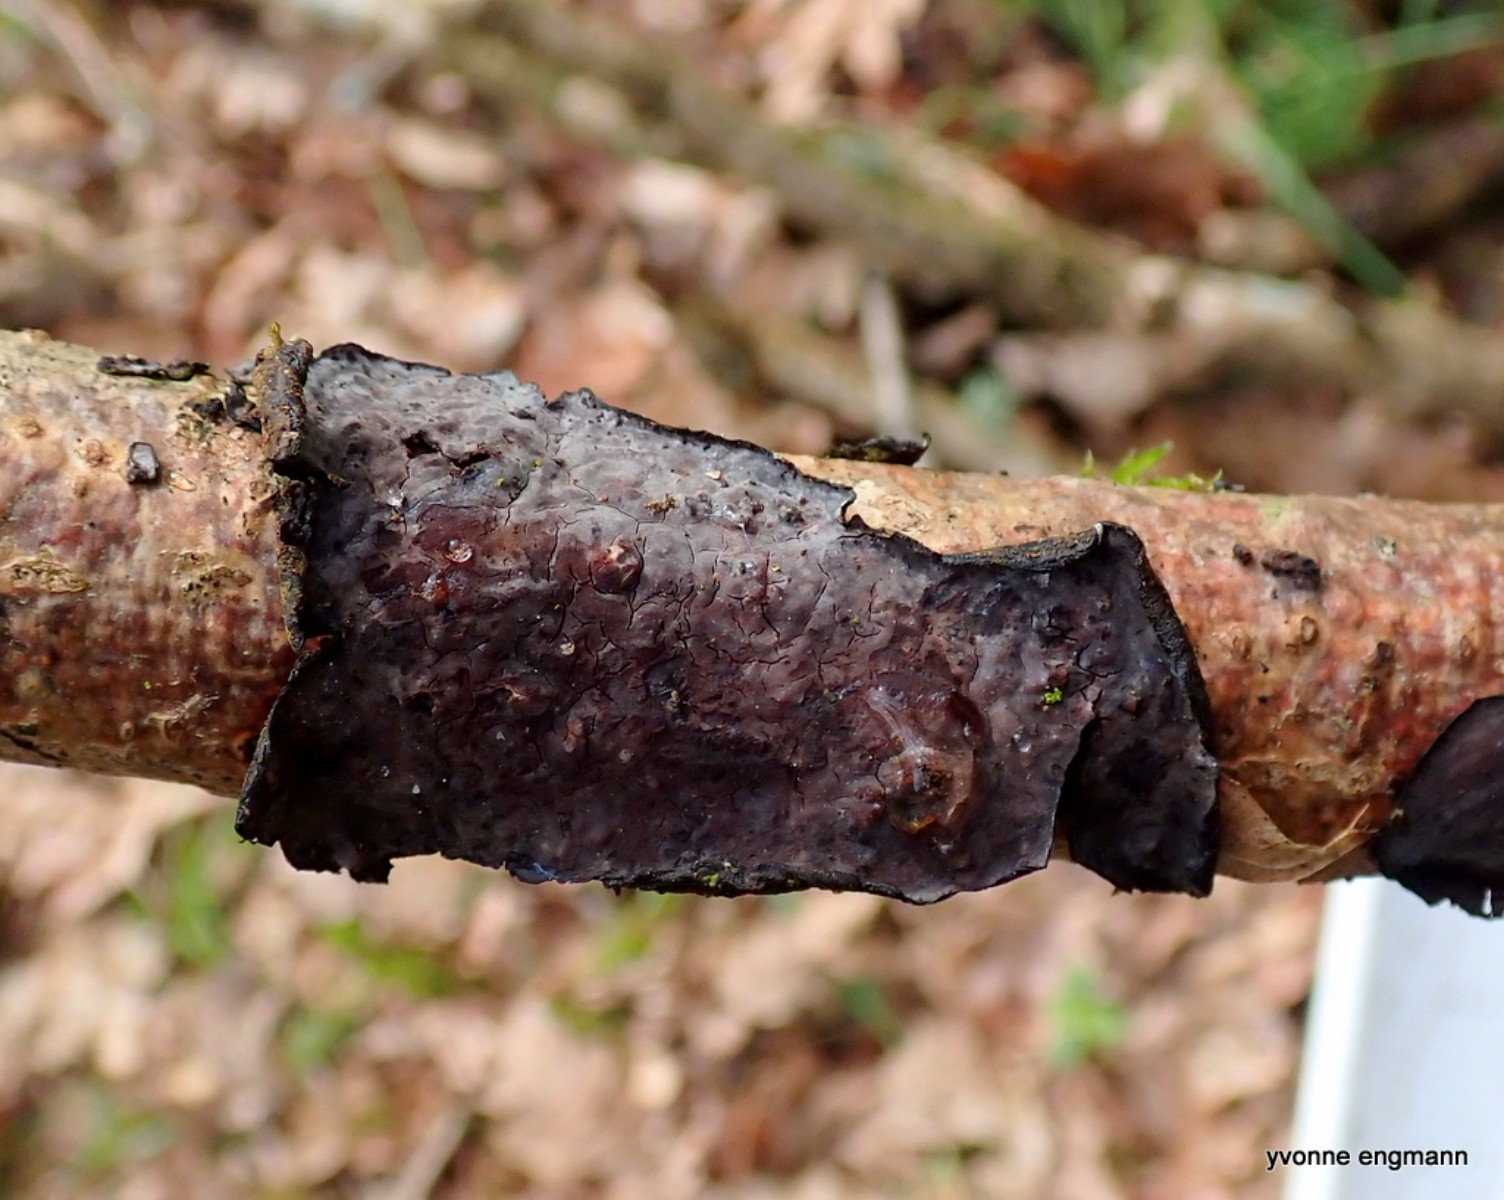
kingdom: Fungi
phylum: Basidiomycota
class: Agaricomycetes
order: Russulales
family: Peniophoraceae
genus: Peniophora
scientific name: Peniophora quercina
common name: ege-voksskind
